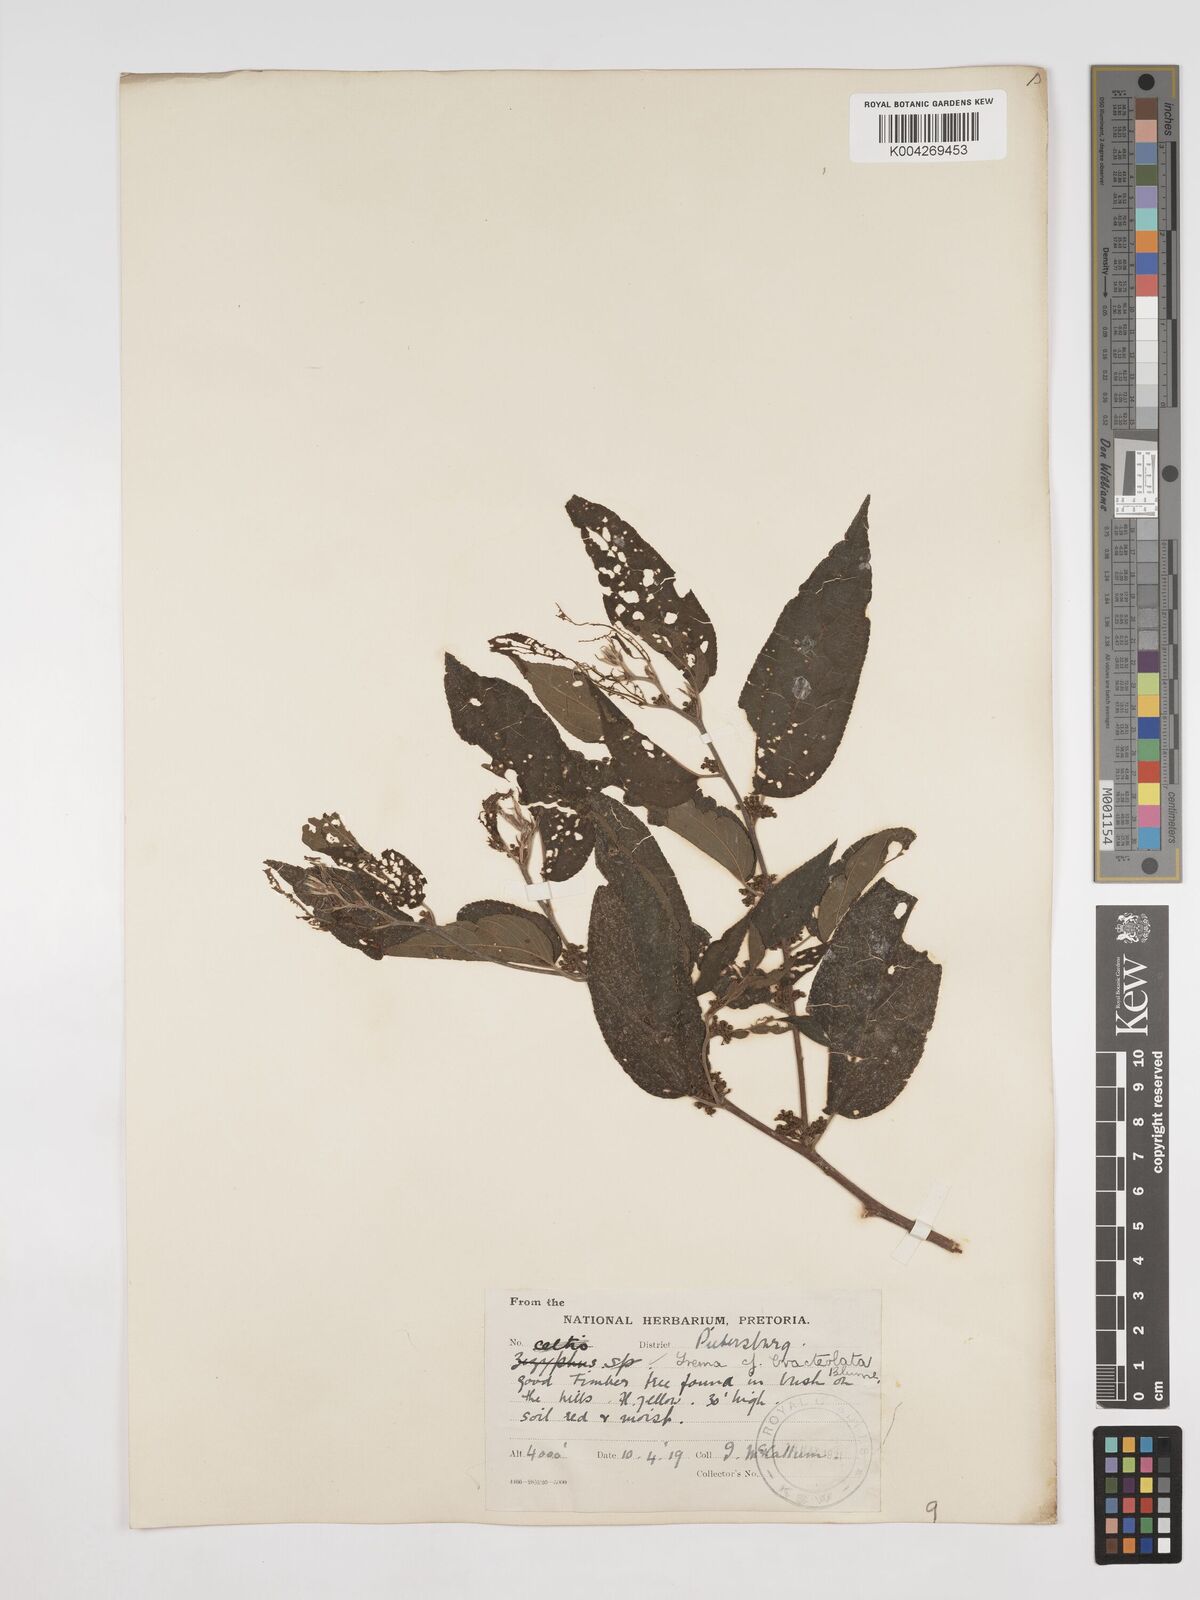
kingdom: Plantae
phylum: Tracheophyta
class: Magnoliopsida
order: Rosales
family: Cannabaceae
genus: Trema
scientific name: Trema orientale
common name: Indian charcoal tree
